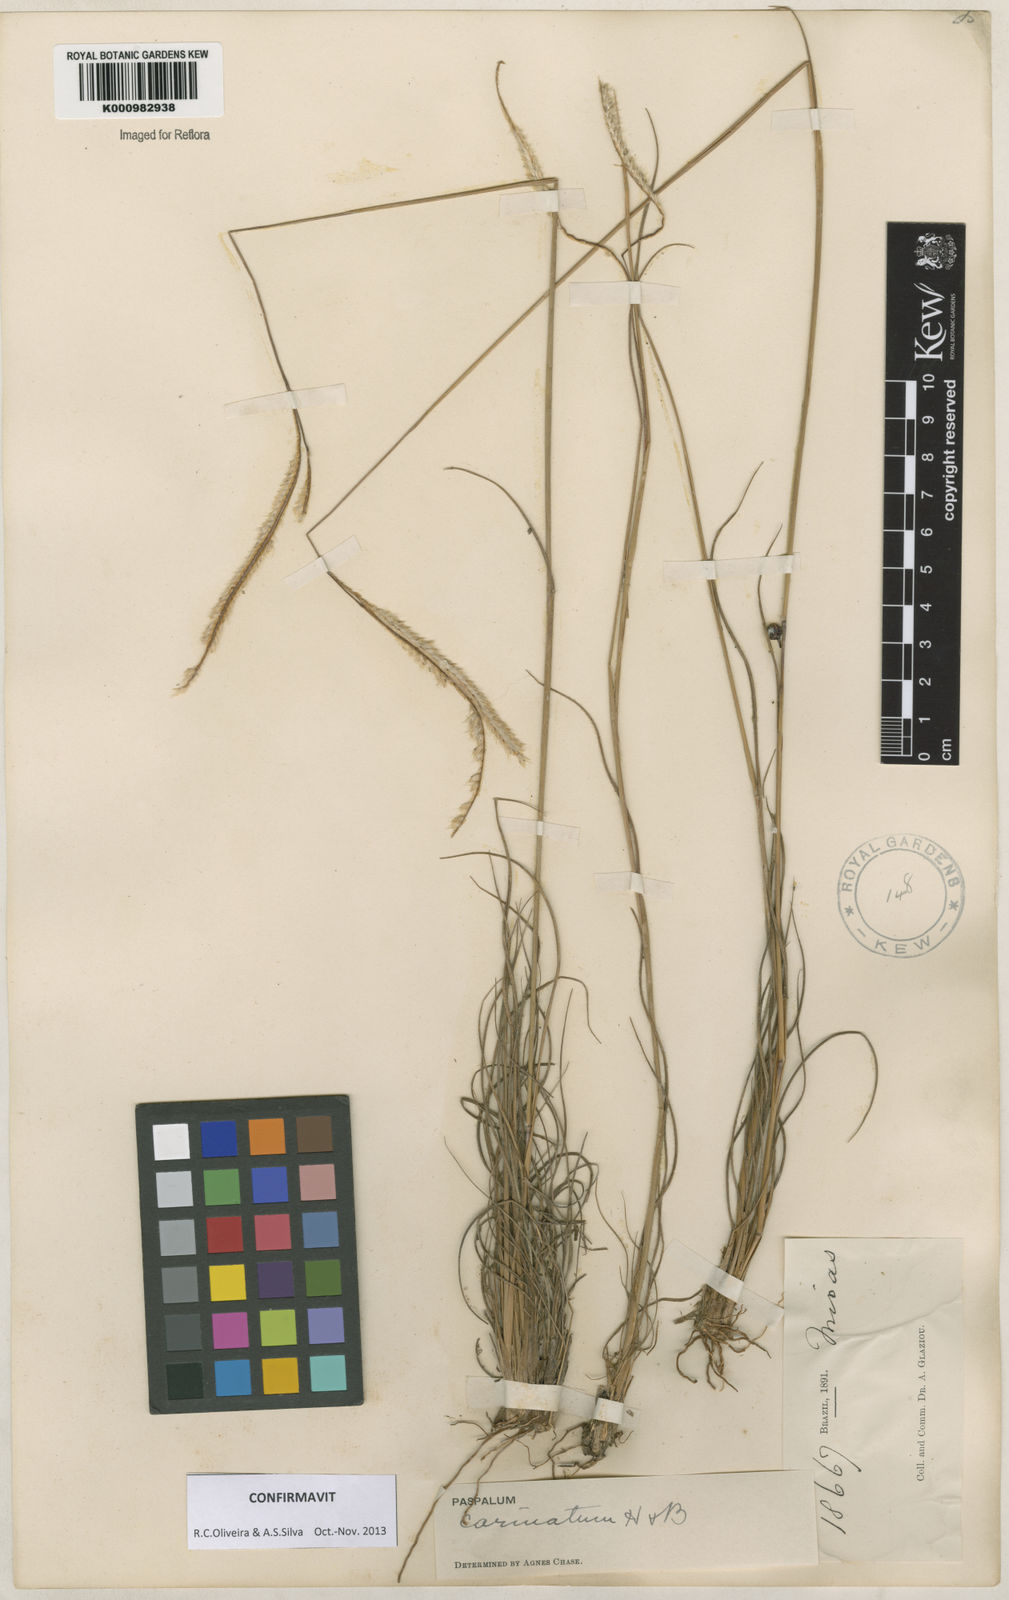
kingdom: Plantae
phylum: Tracheophyta
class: Liliopsida
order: Poales
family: Poaceae
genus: Paspalum
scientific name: Paspalum
